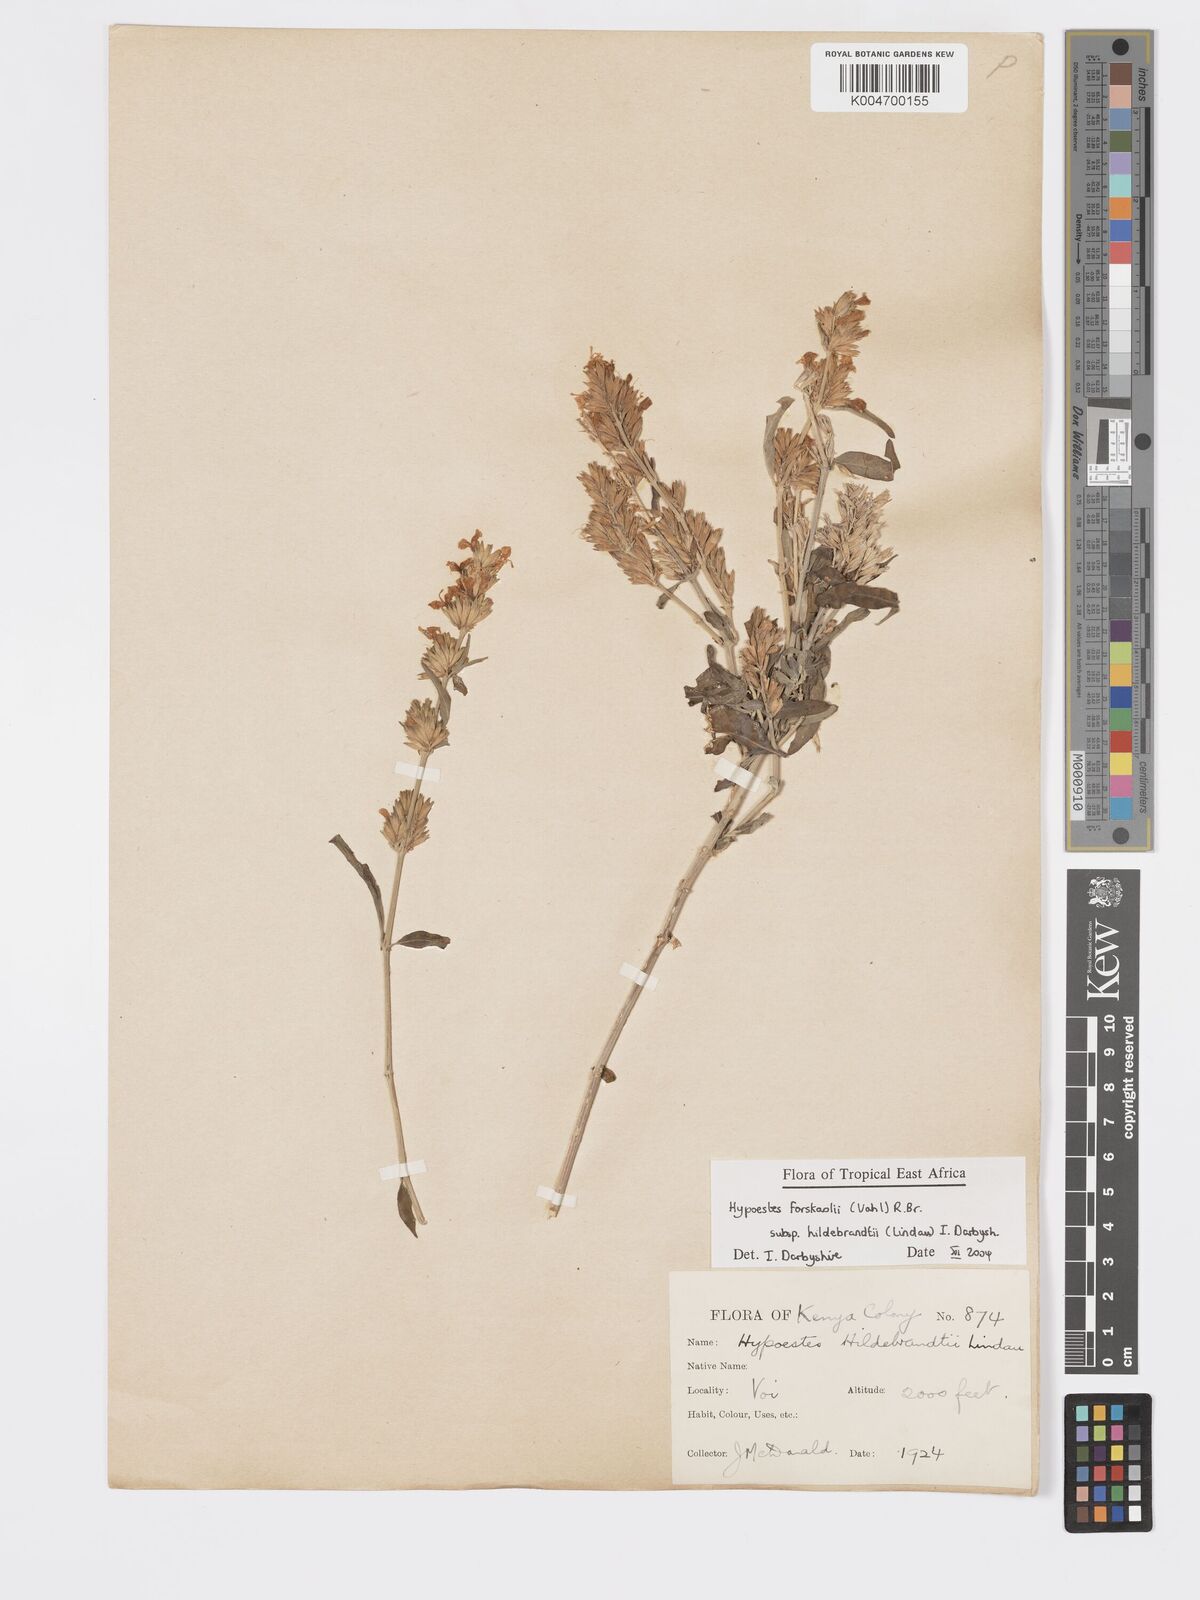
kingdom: Plantae
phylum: Tracheophyta
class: Magnoliopsida
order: Lamiales
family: Acanthaceae
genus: Hypoestes
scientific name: Hypoestes forskaolii
